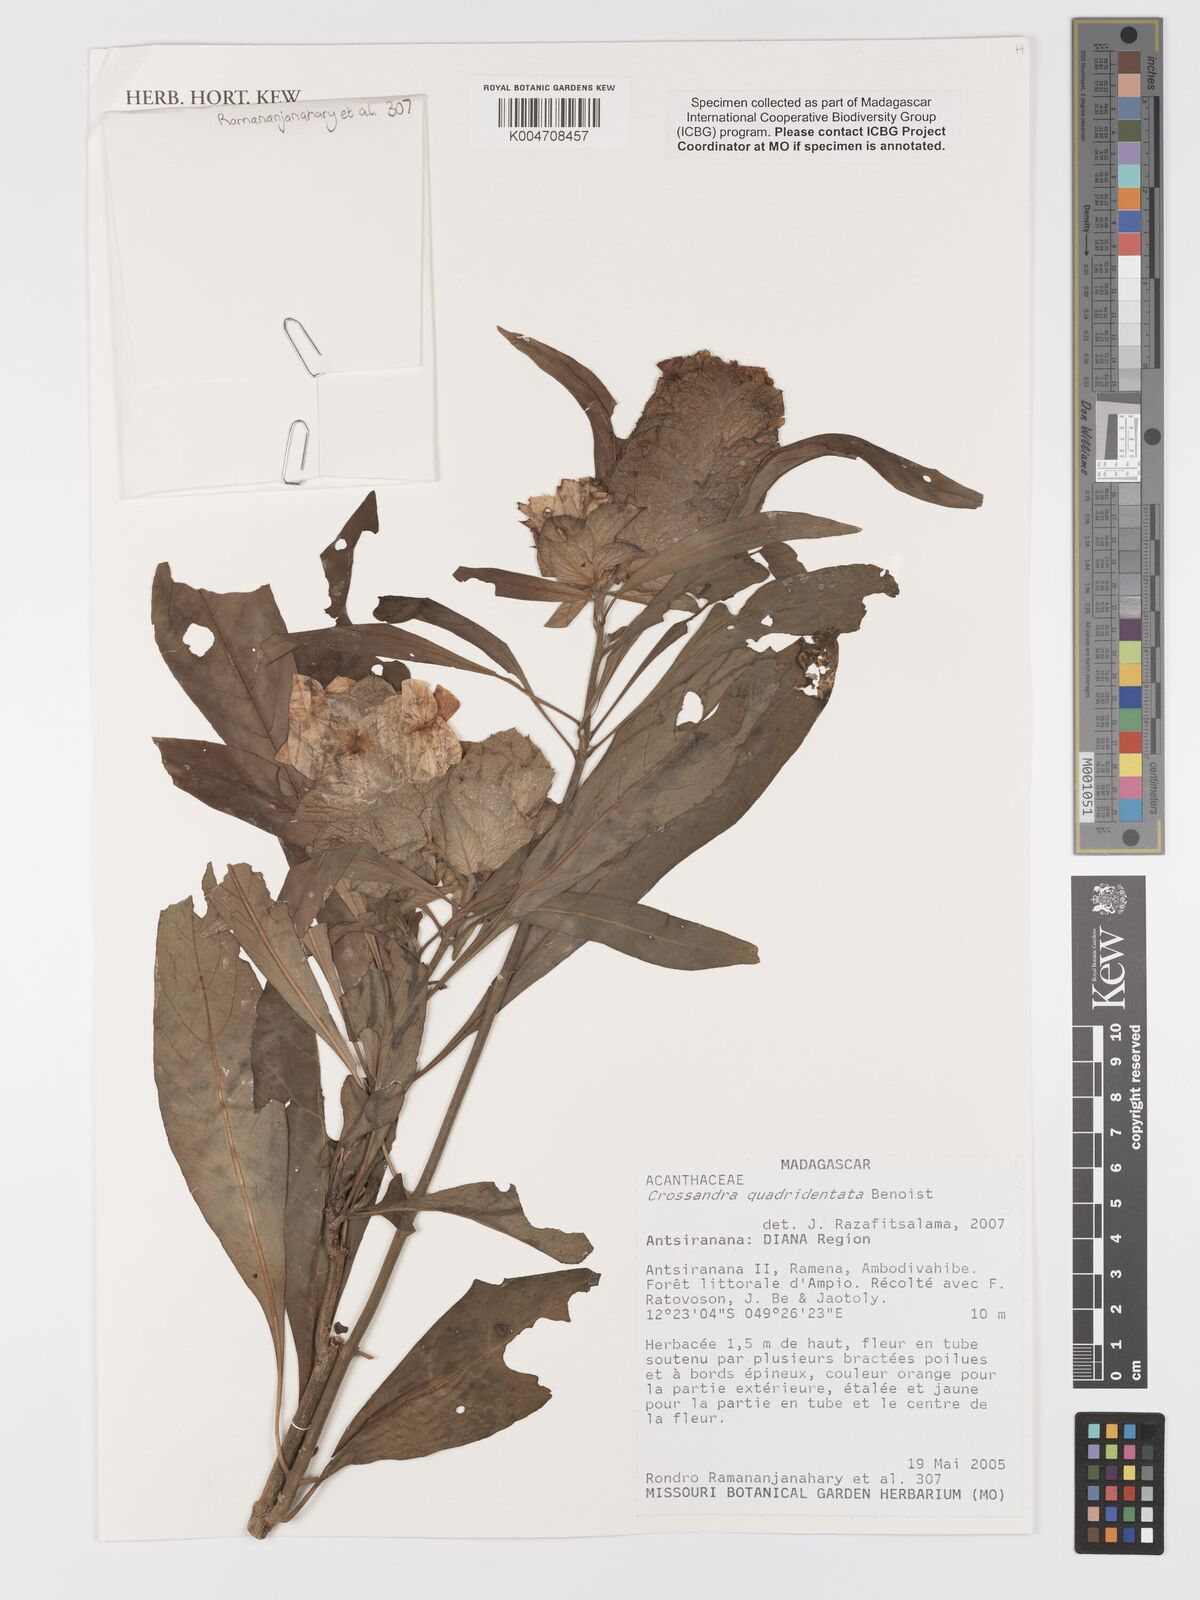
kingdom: Plantae
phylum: Tracheophyta
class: Magnoliopsida
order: Lamiales
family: Acanthaceae
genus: Crossandra
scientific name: Crossandra quadridentata
